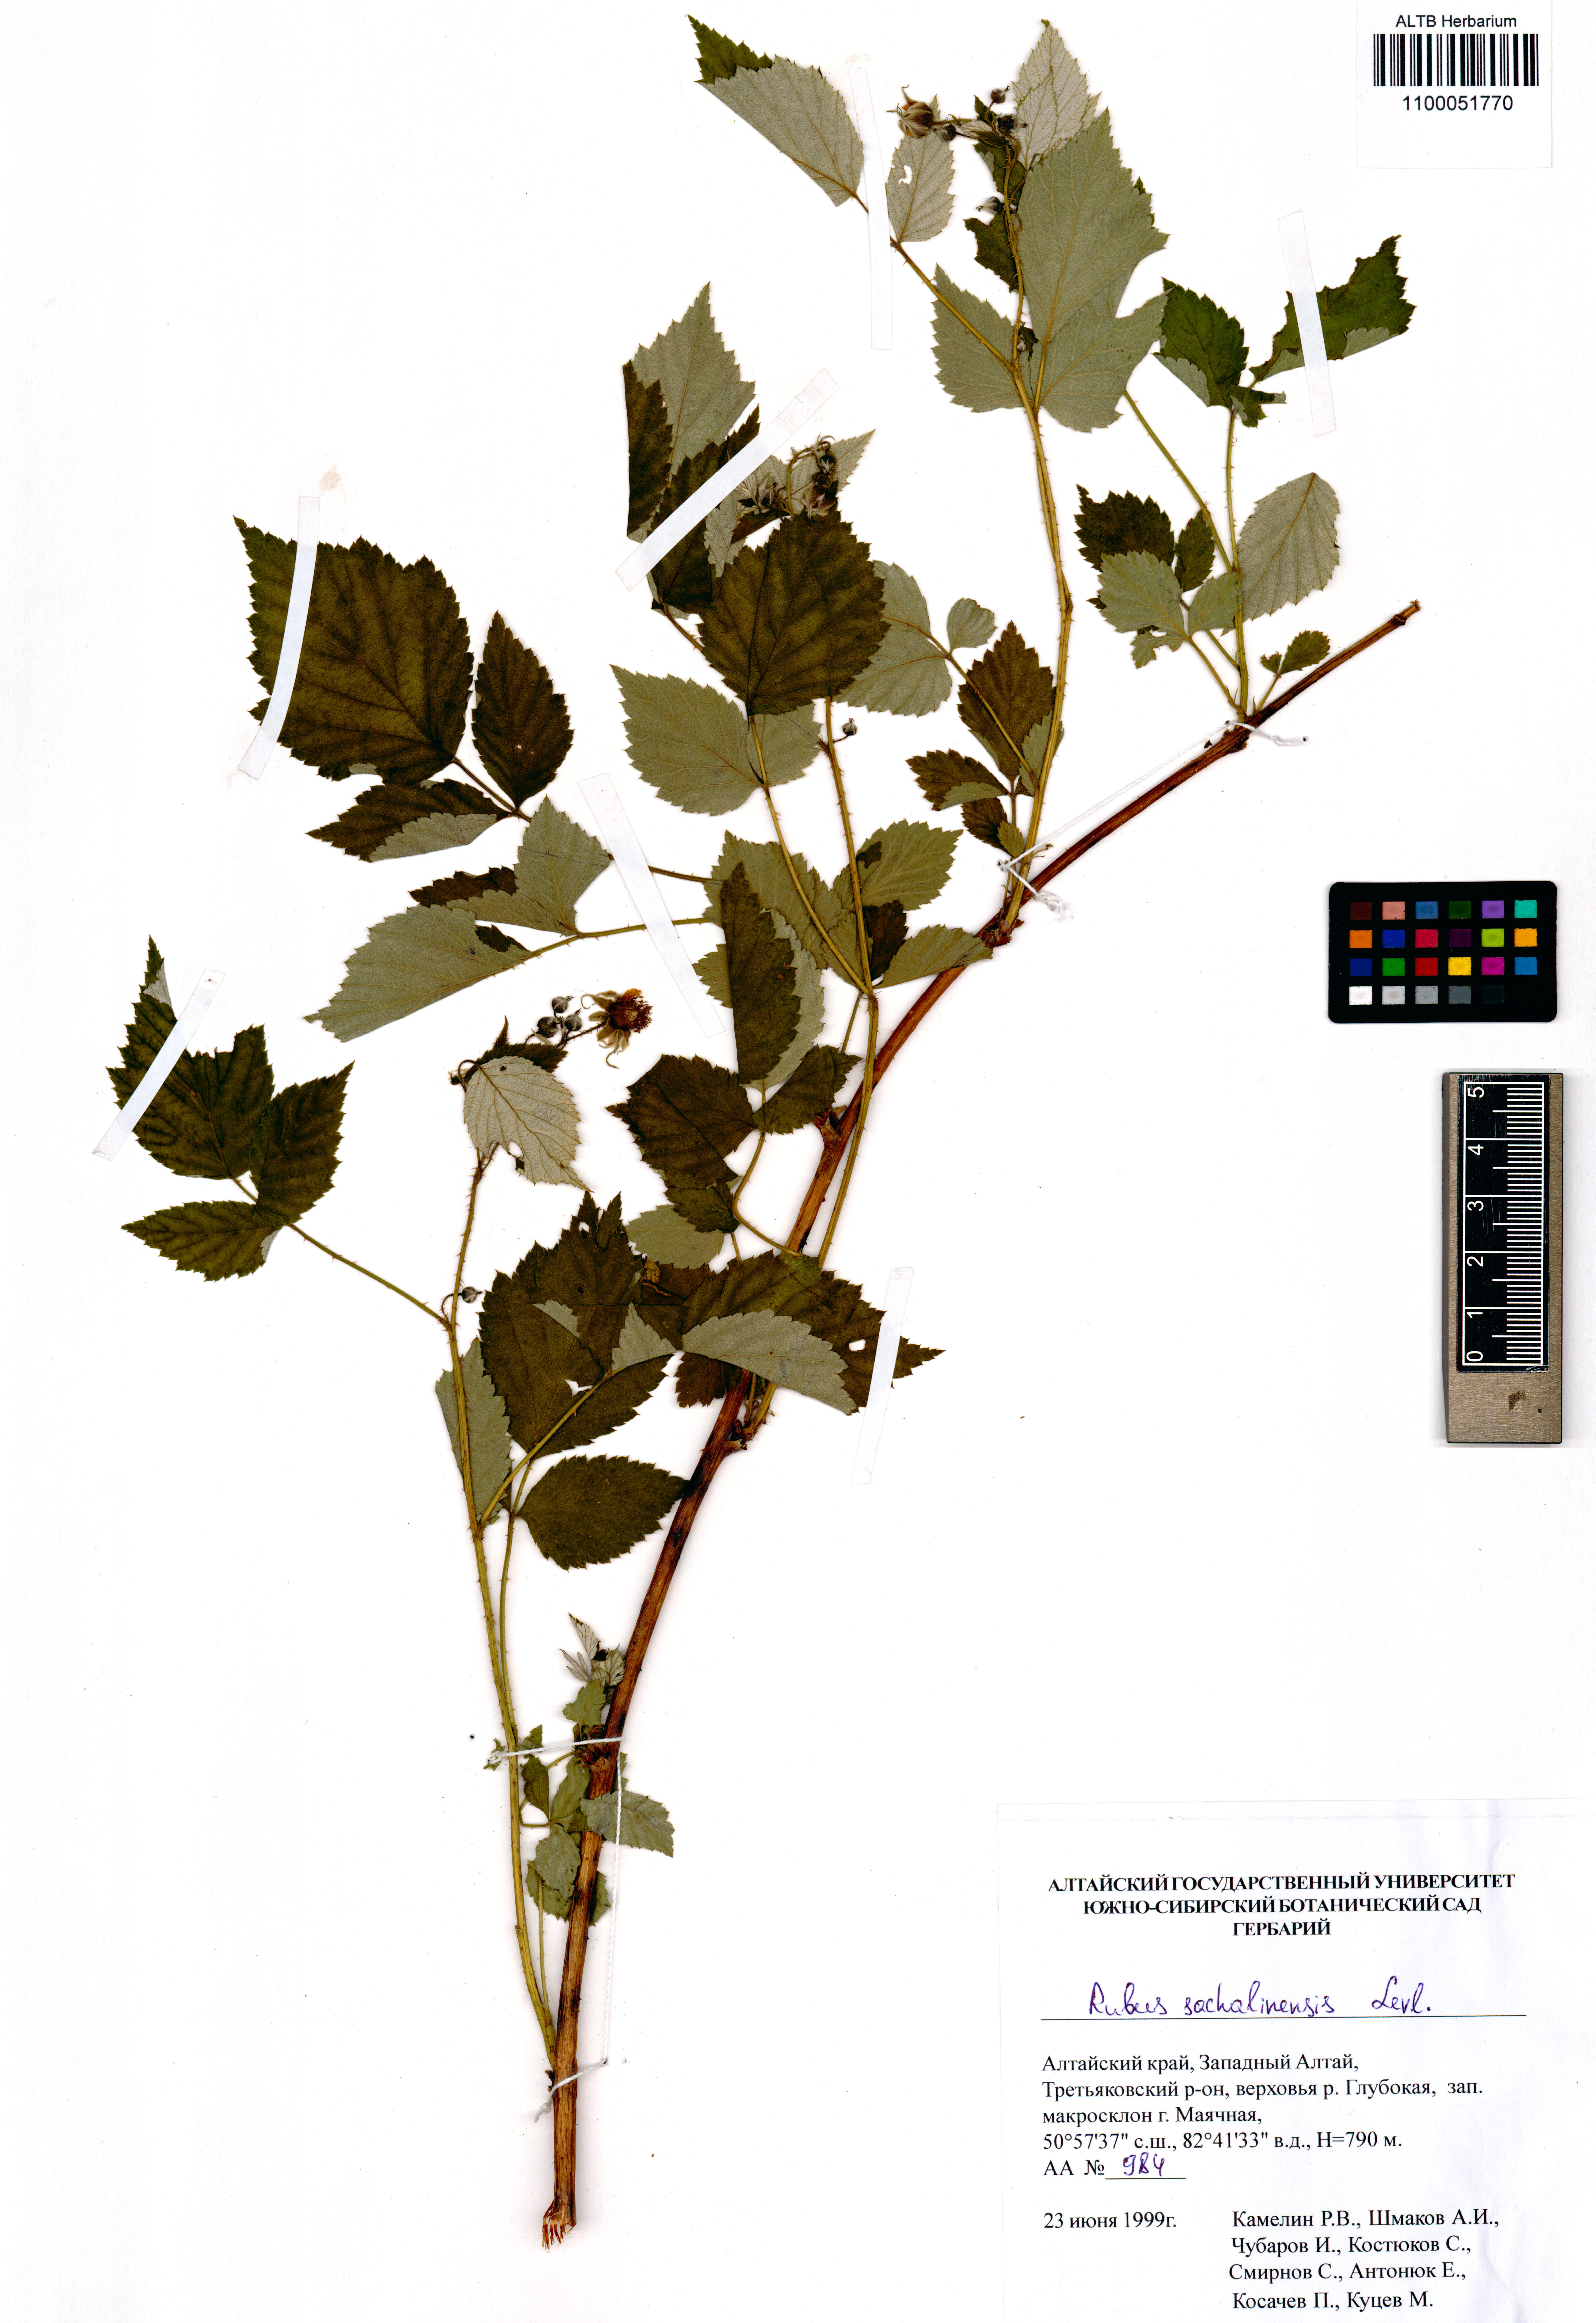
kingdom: Plantae
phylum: Tracheophyta
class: Magnoliopsida
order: Rosales
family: Rosaceae
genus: Rubus
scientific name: Rubus sachalinensis
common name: Red raspberry
